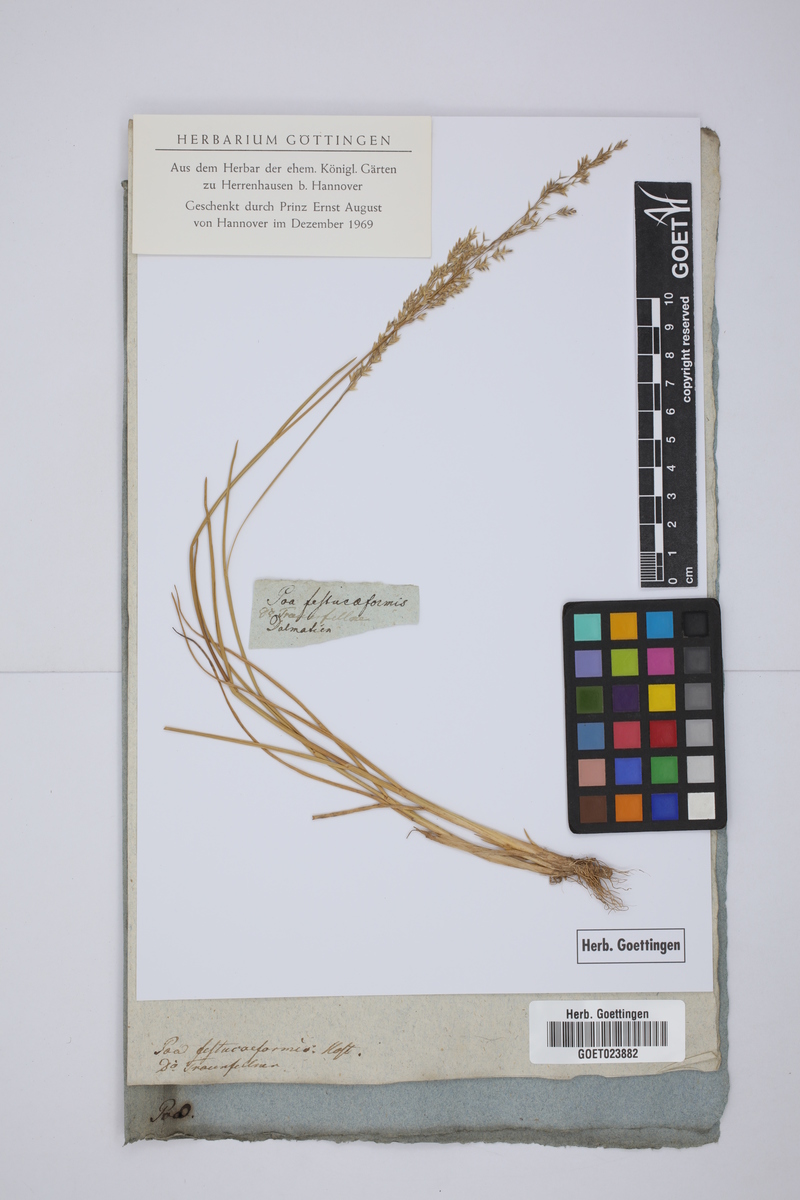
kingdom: Plantae
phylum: Tracheophyta
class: Liliopsida
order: Poales
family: Poaceae
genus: Puccinellia
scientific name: Puccinellia festuciformis
